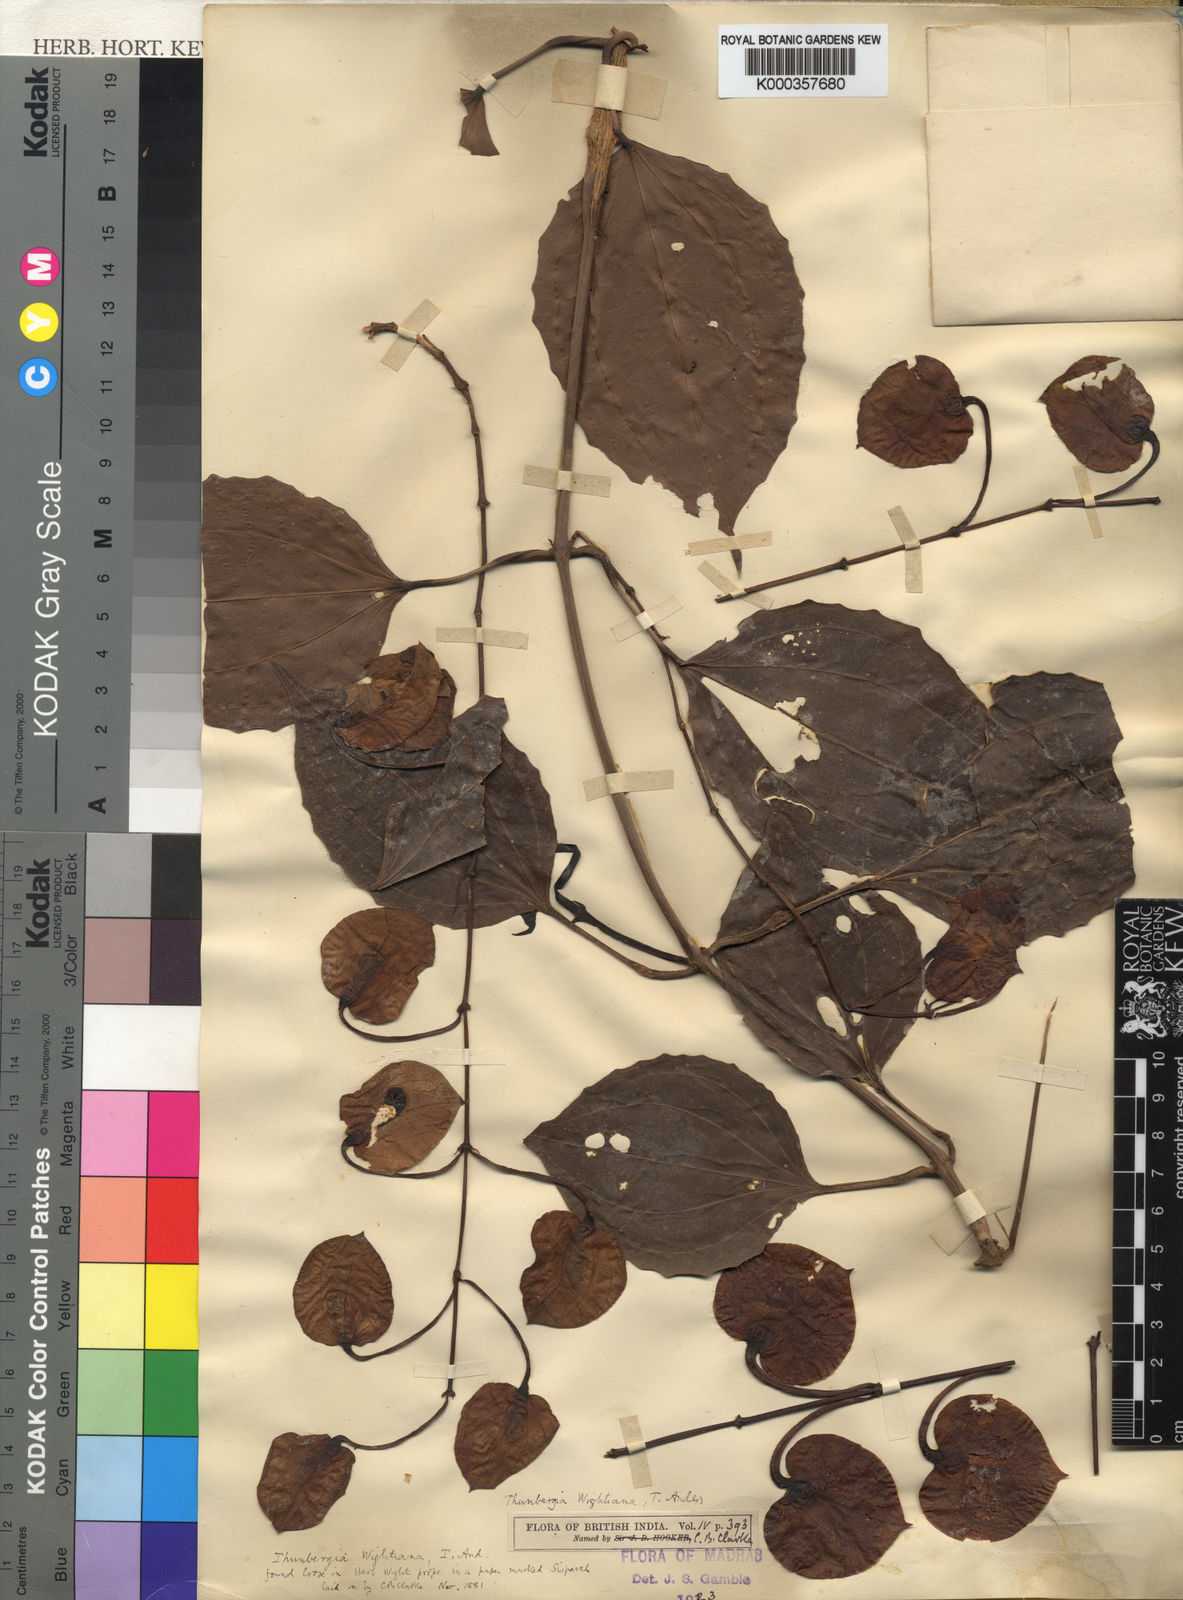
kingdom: Plantae
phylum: Tracheophyta
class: Magnoliopsida
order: Lamiales
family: Acanthaceae
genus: Thunbergia
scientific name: Thunbergia bicolor
